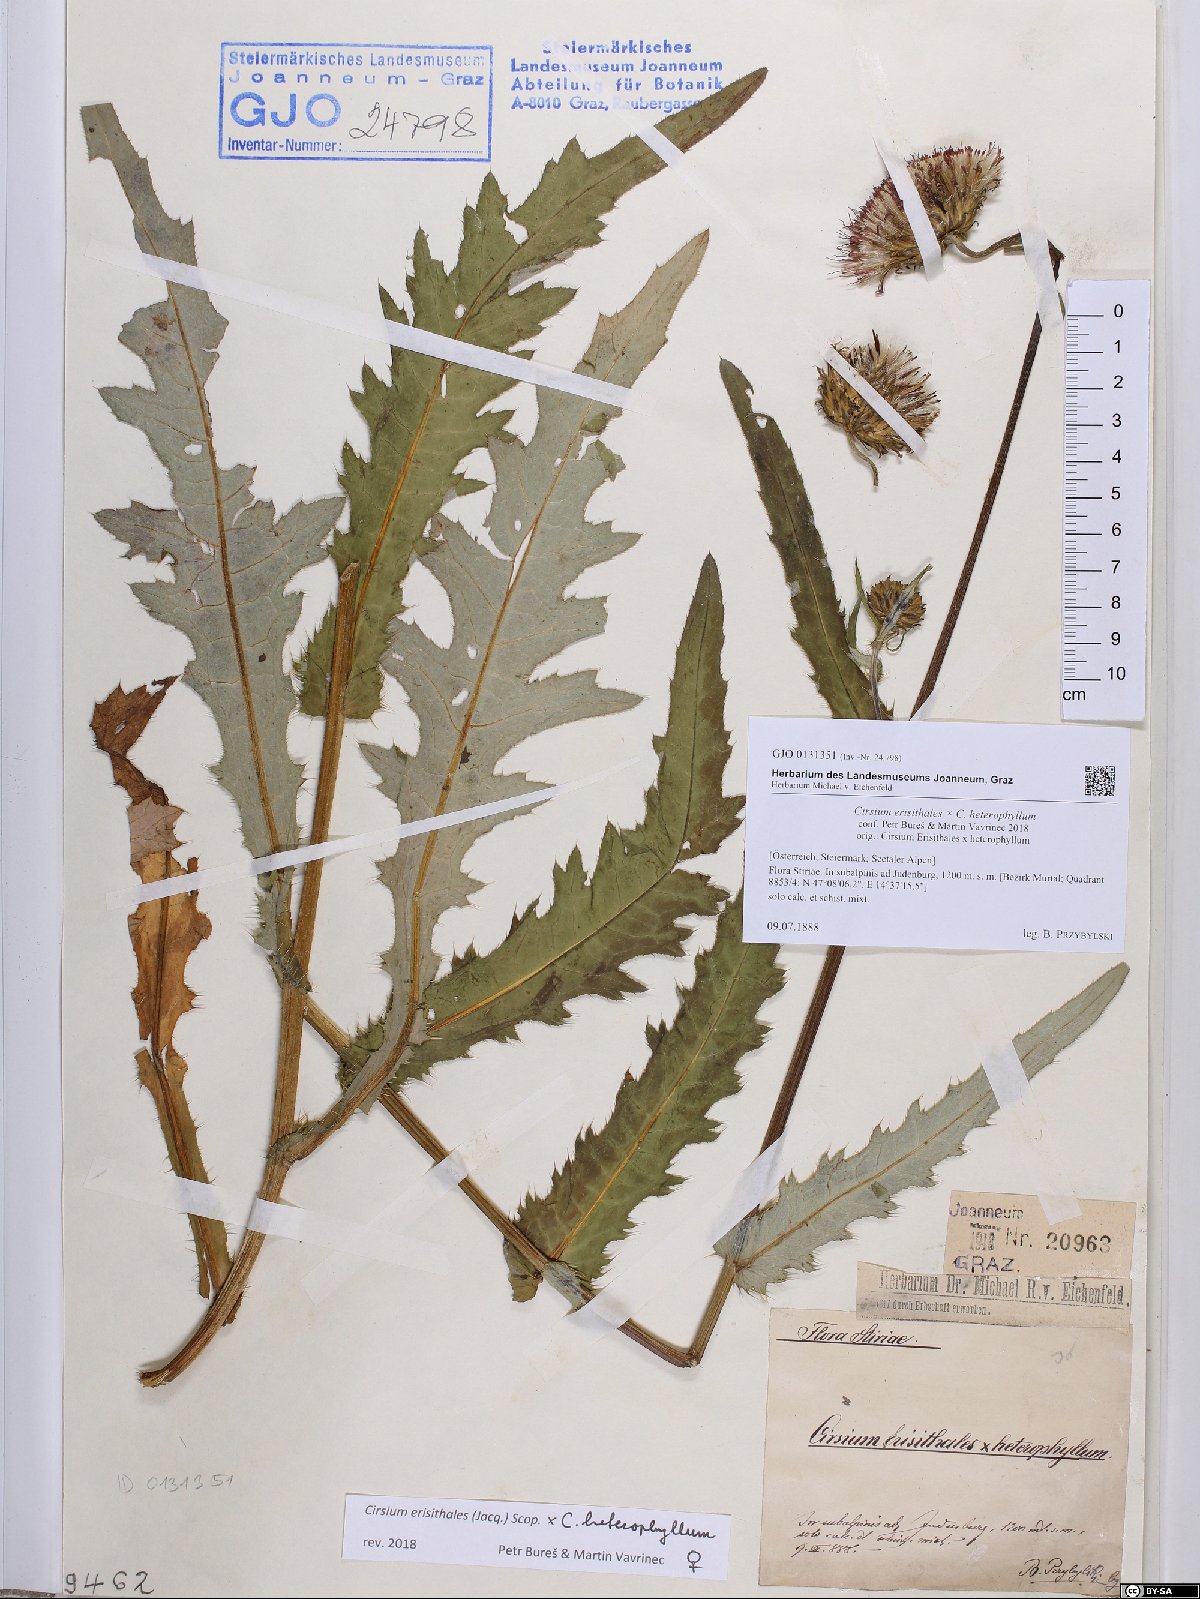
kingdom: Plantae
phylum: Tracheophyta
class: Magnoliopsida
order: Asterales
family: Asteraceae
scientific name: Asteraceae
